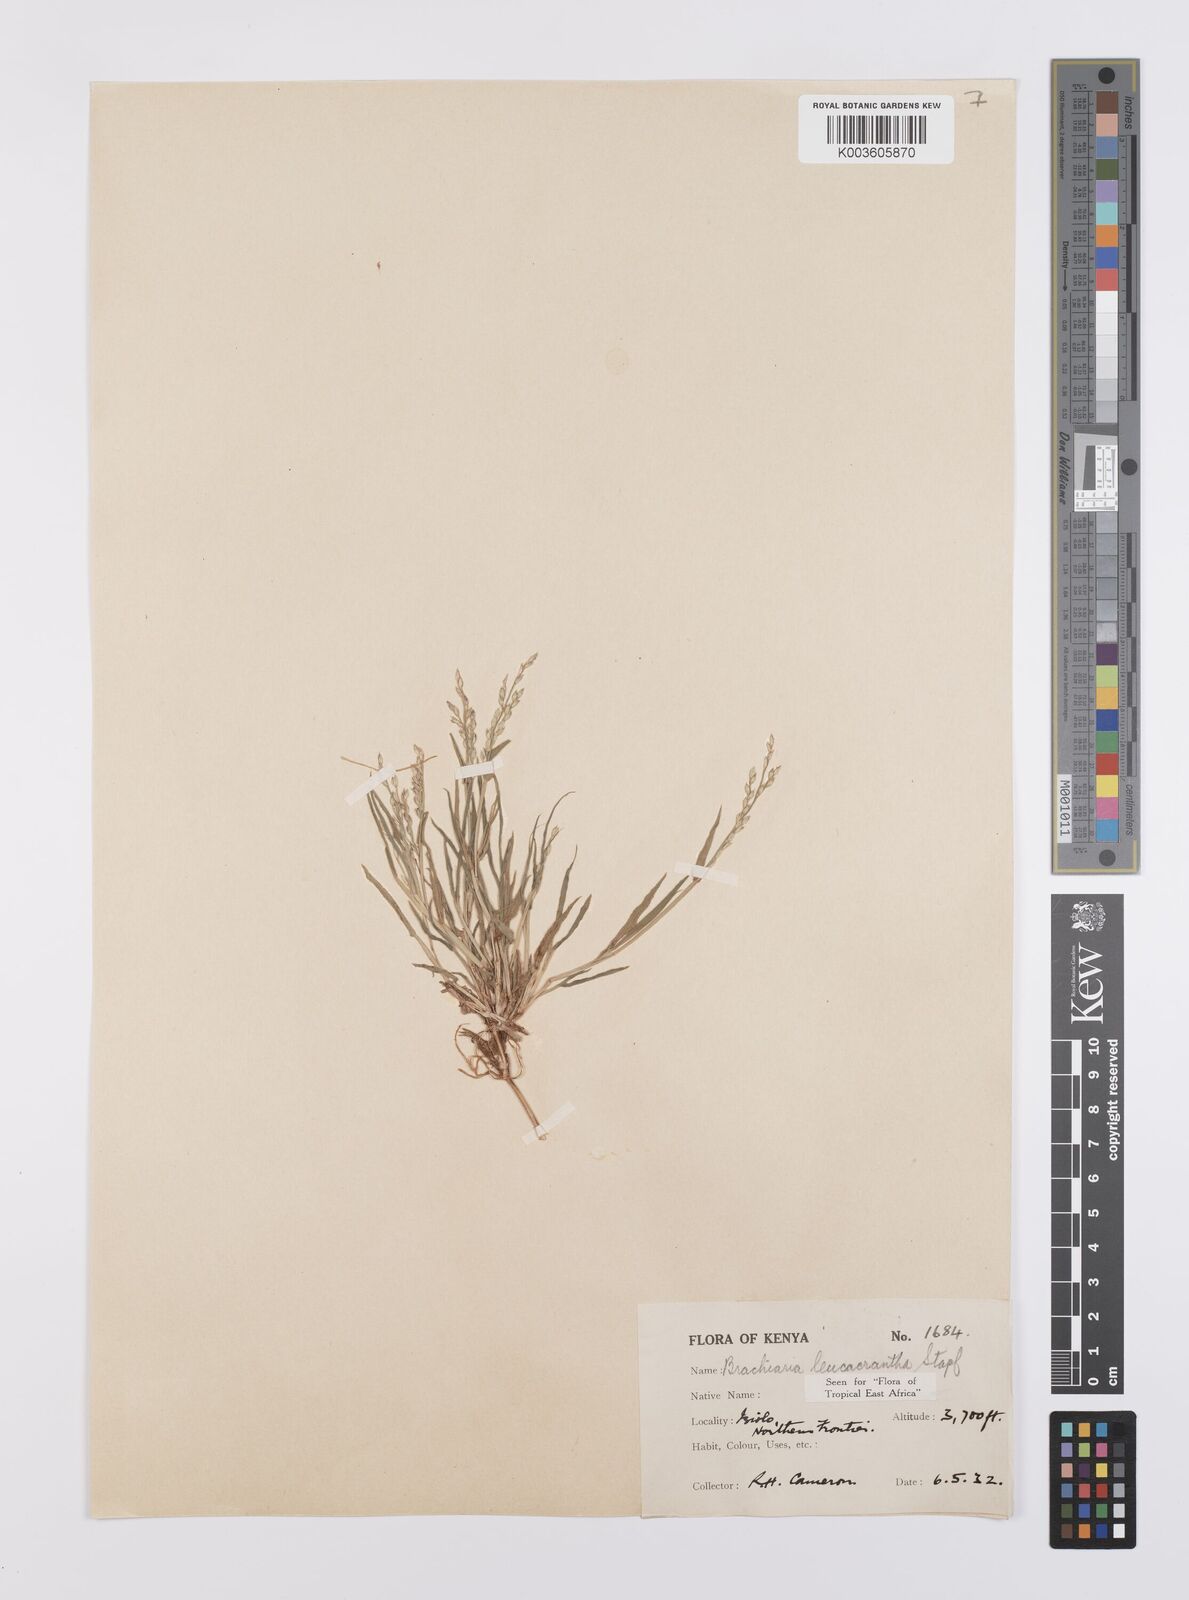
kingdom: Plantae
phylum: Tracheophyta
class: Liliopsida
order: Poales
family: Poaceae
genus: Urochloa
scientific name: Urochloa xantholeuca
